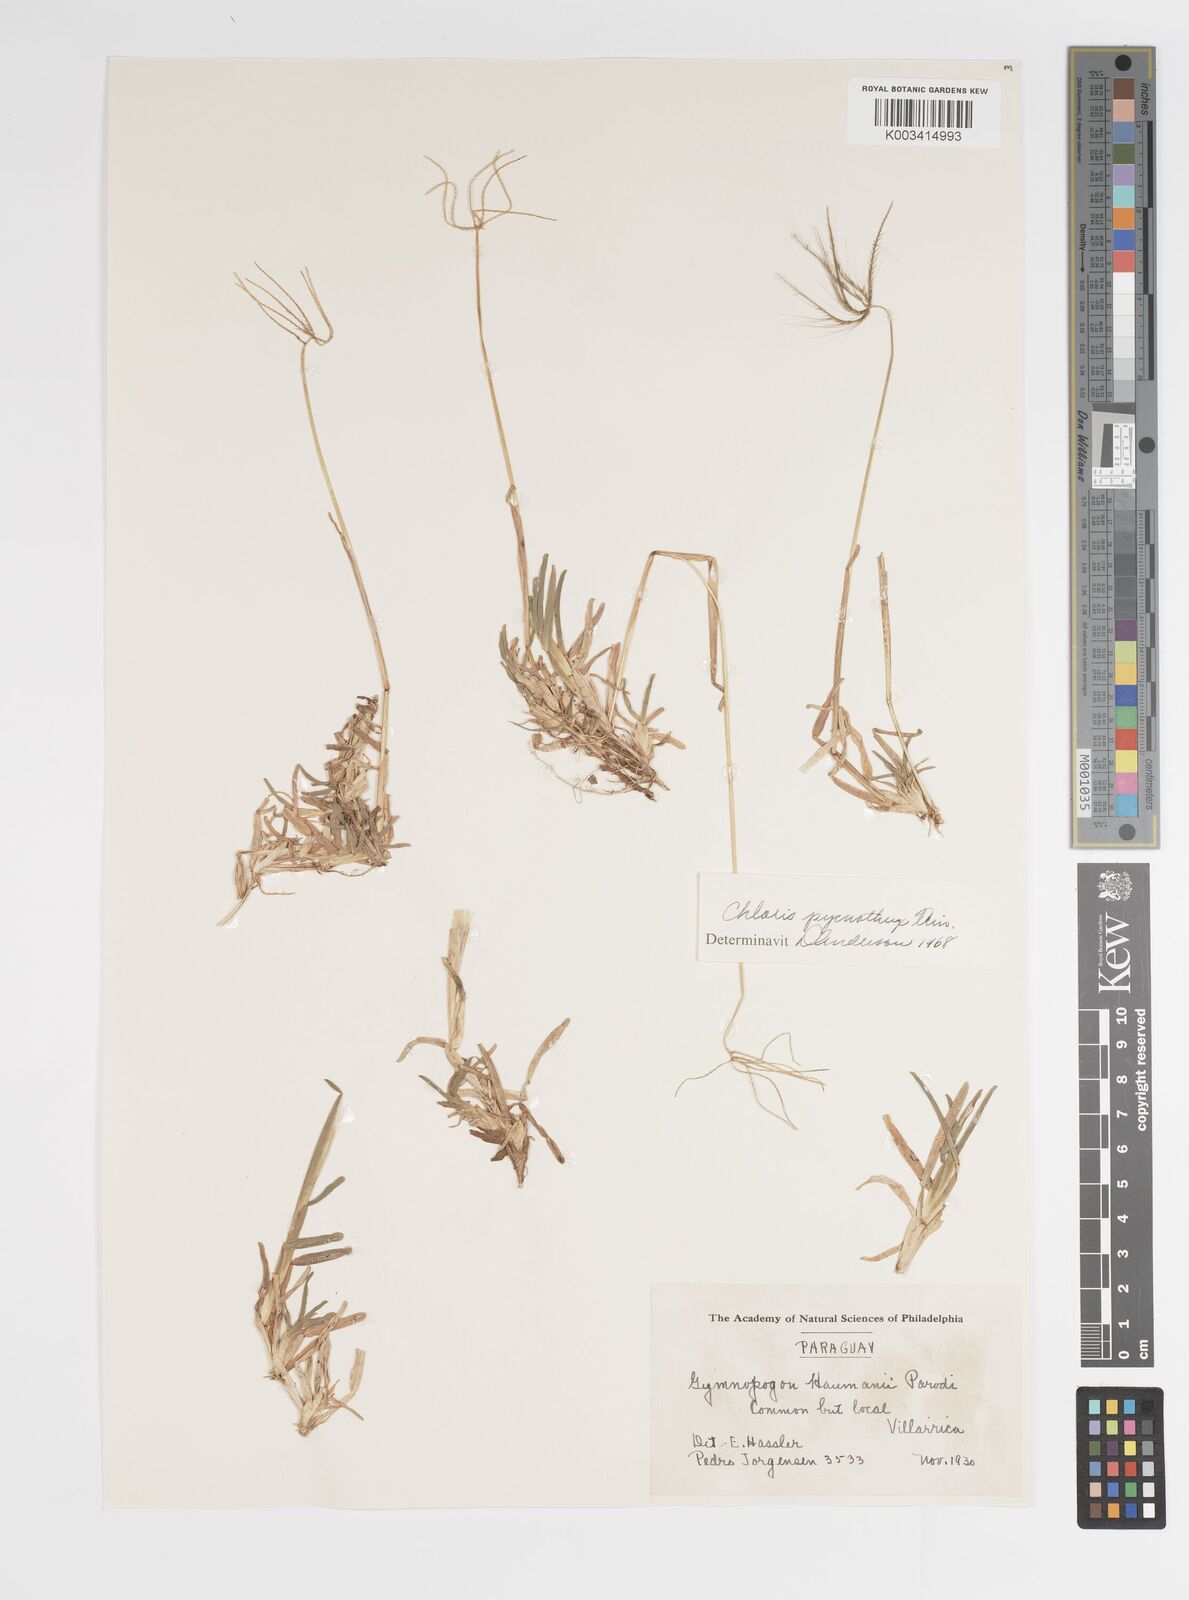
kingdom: Plantae
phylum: Tracheophyta
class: Liliopsida
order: Poales
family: Poaceae
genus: Chloris
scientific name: Chloris pycnothrix
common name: Spiderweb chloris
